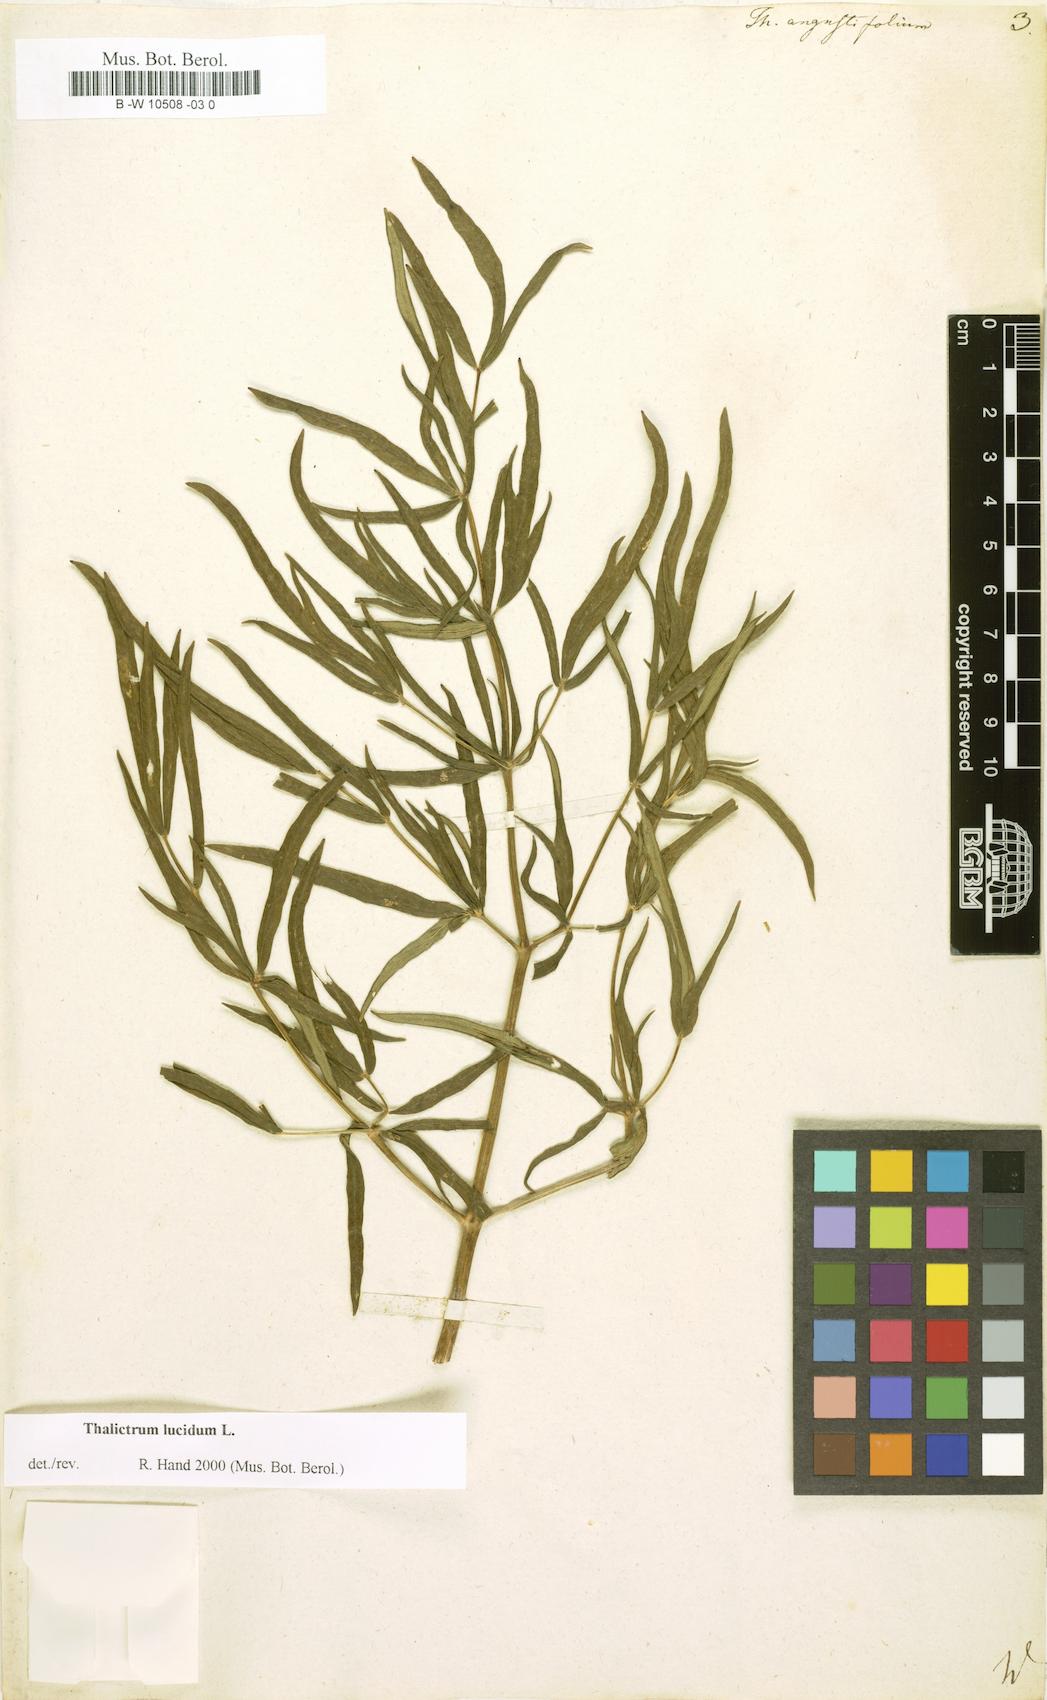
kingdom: Plantae
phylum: Tracheophyta
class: Magnoliopsida
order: Ranunculales
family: Ranunculaceae
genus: Thalictrum
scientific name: Thalictrum lucidum
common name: Shining meadow-rue
